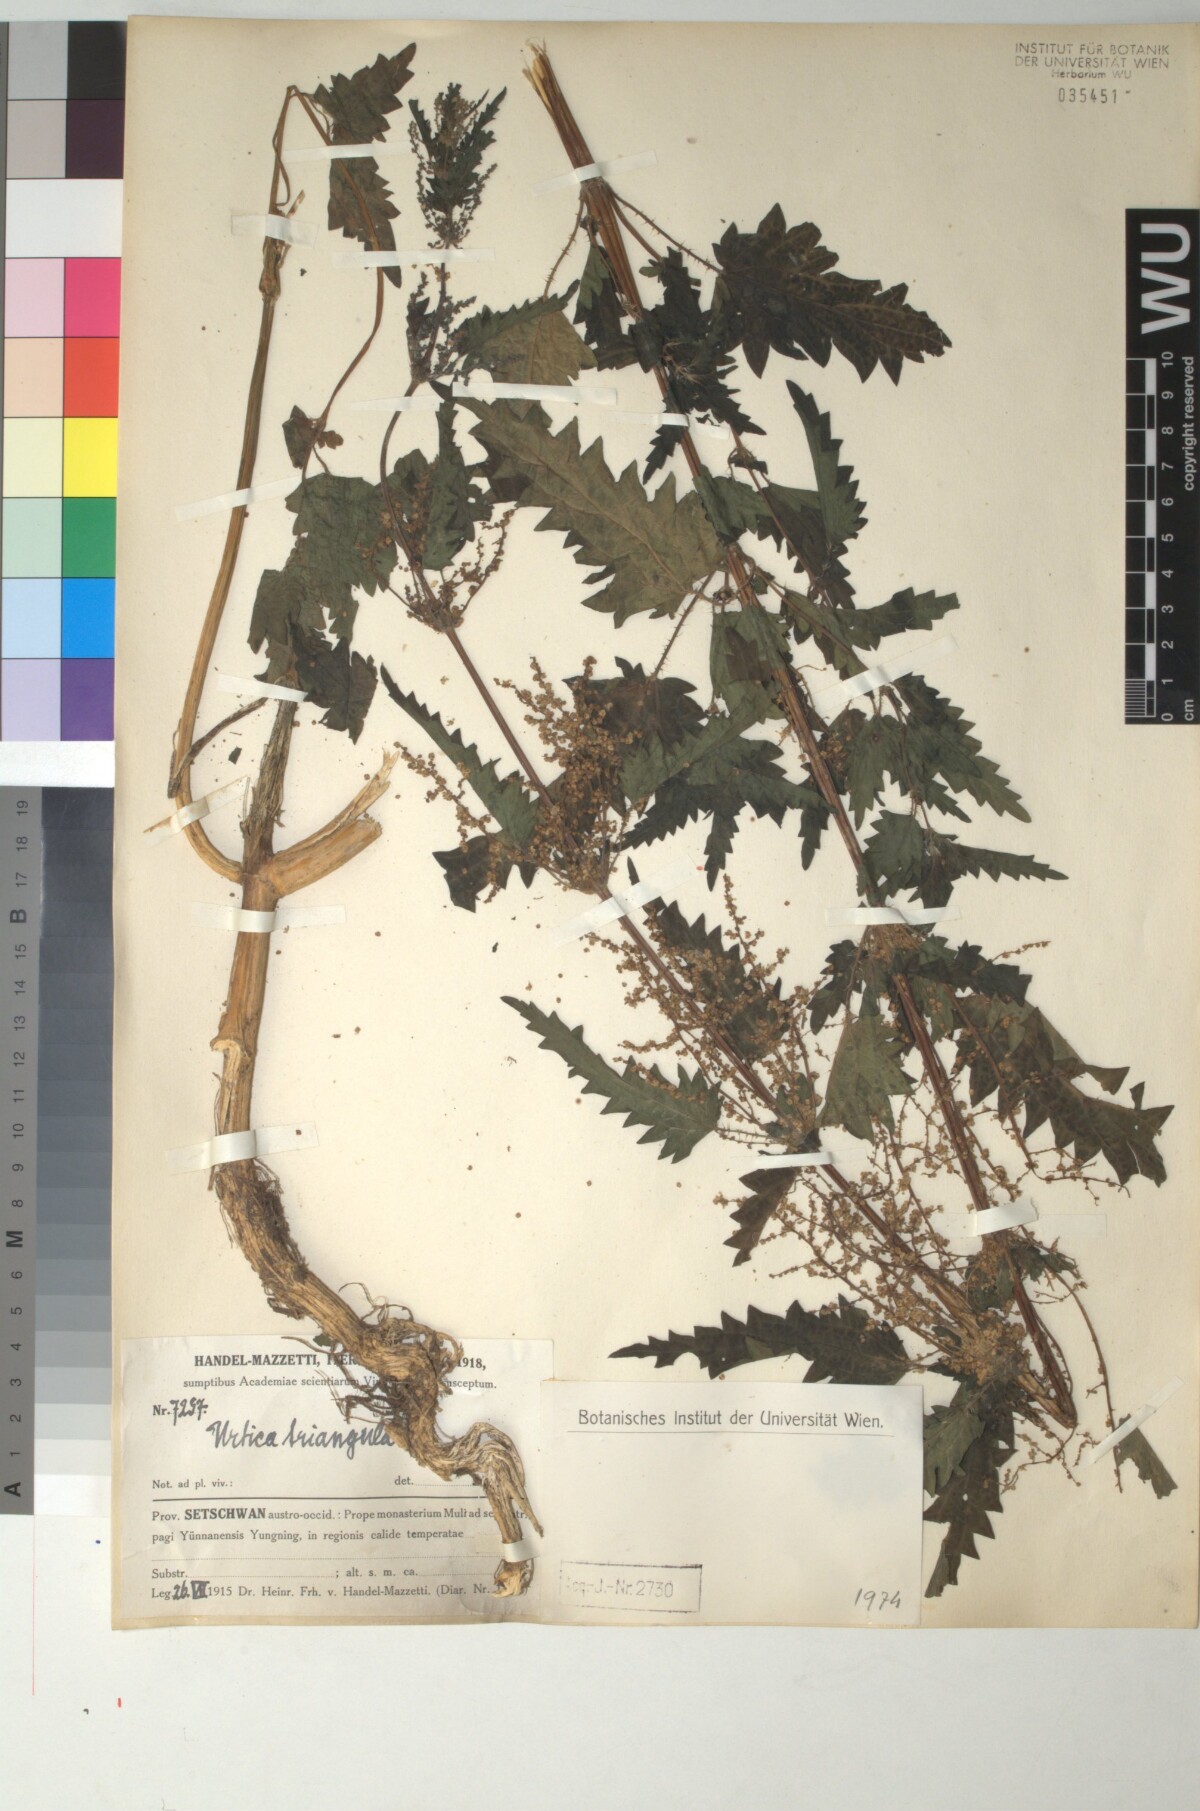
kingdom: Plantae
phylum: Tracheophyta
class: Magnoliopsida
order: Rosales
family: Urticaceae
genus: Urtica
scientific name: Urtica triangularis
